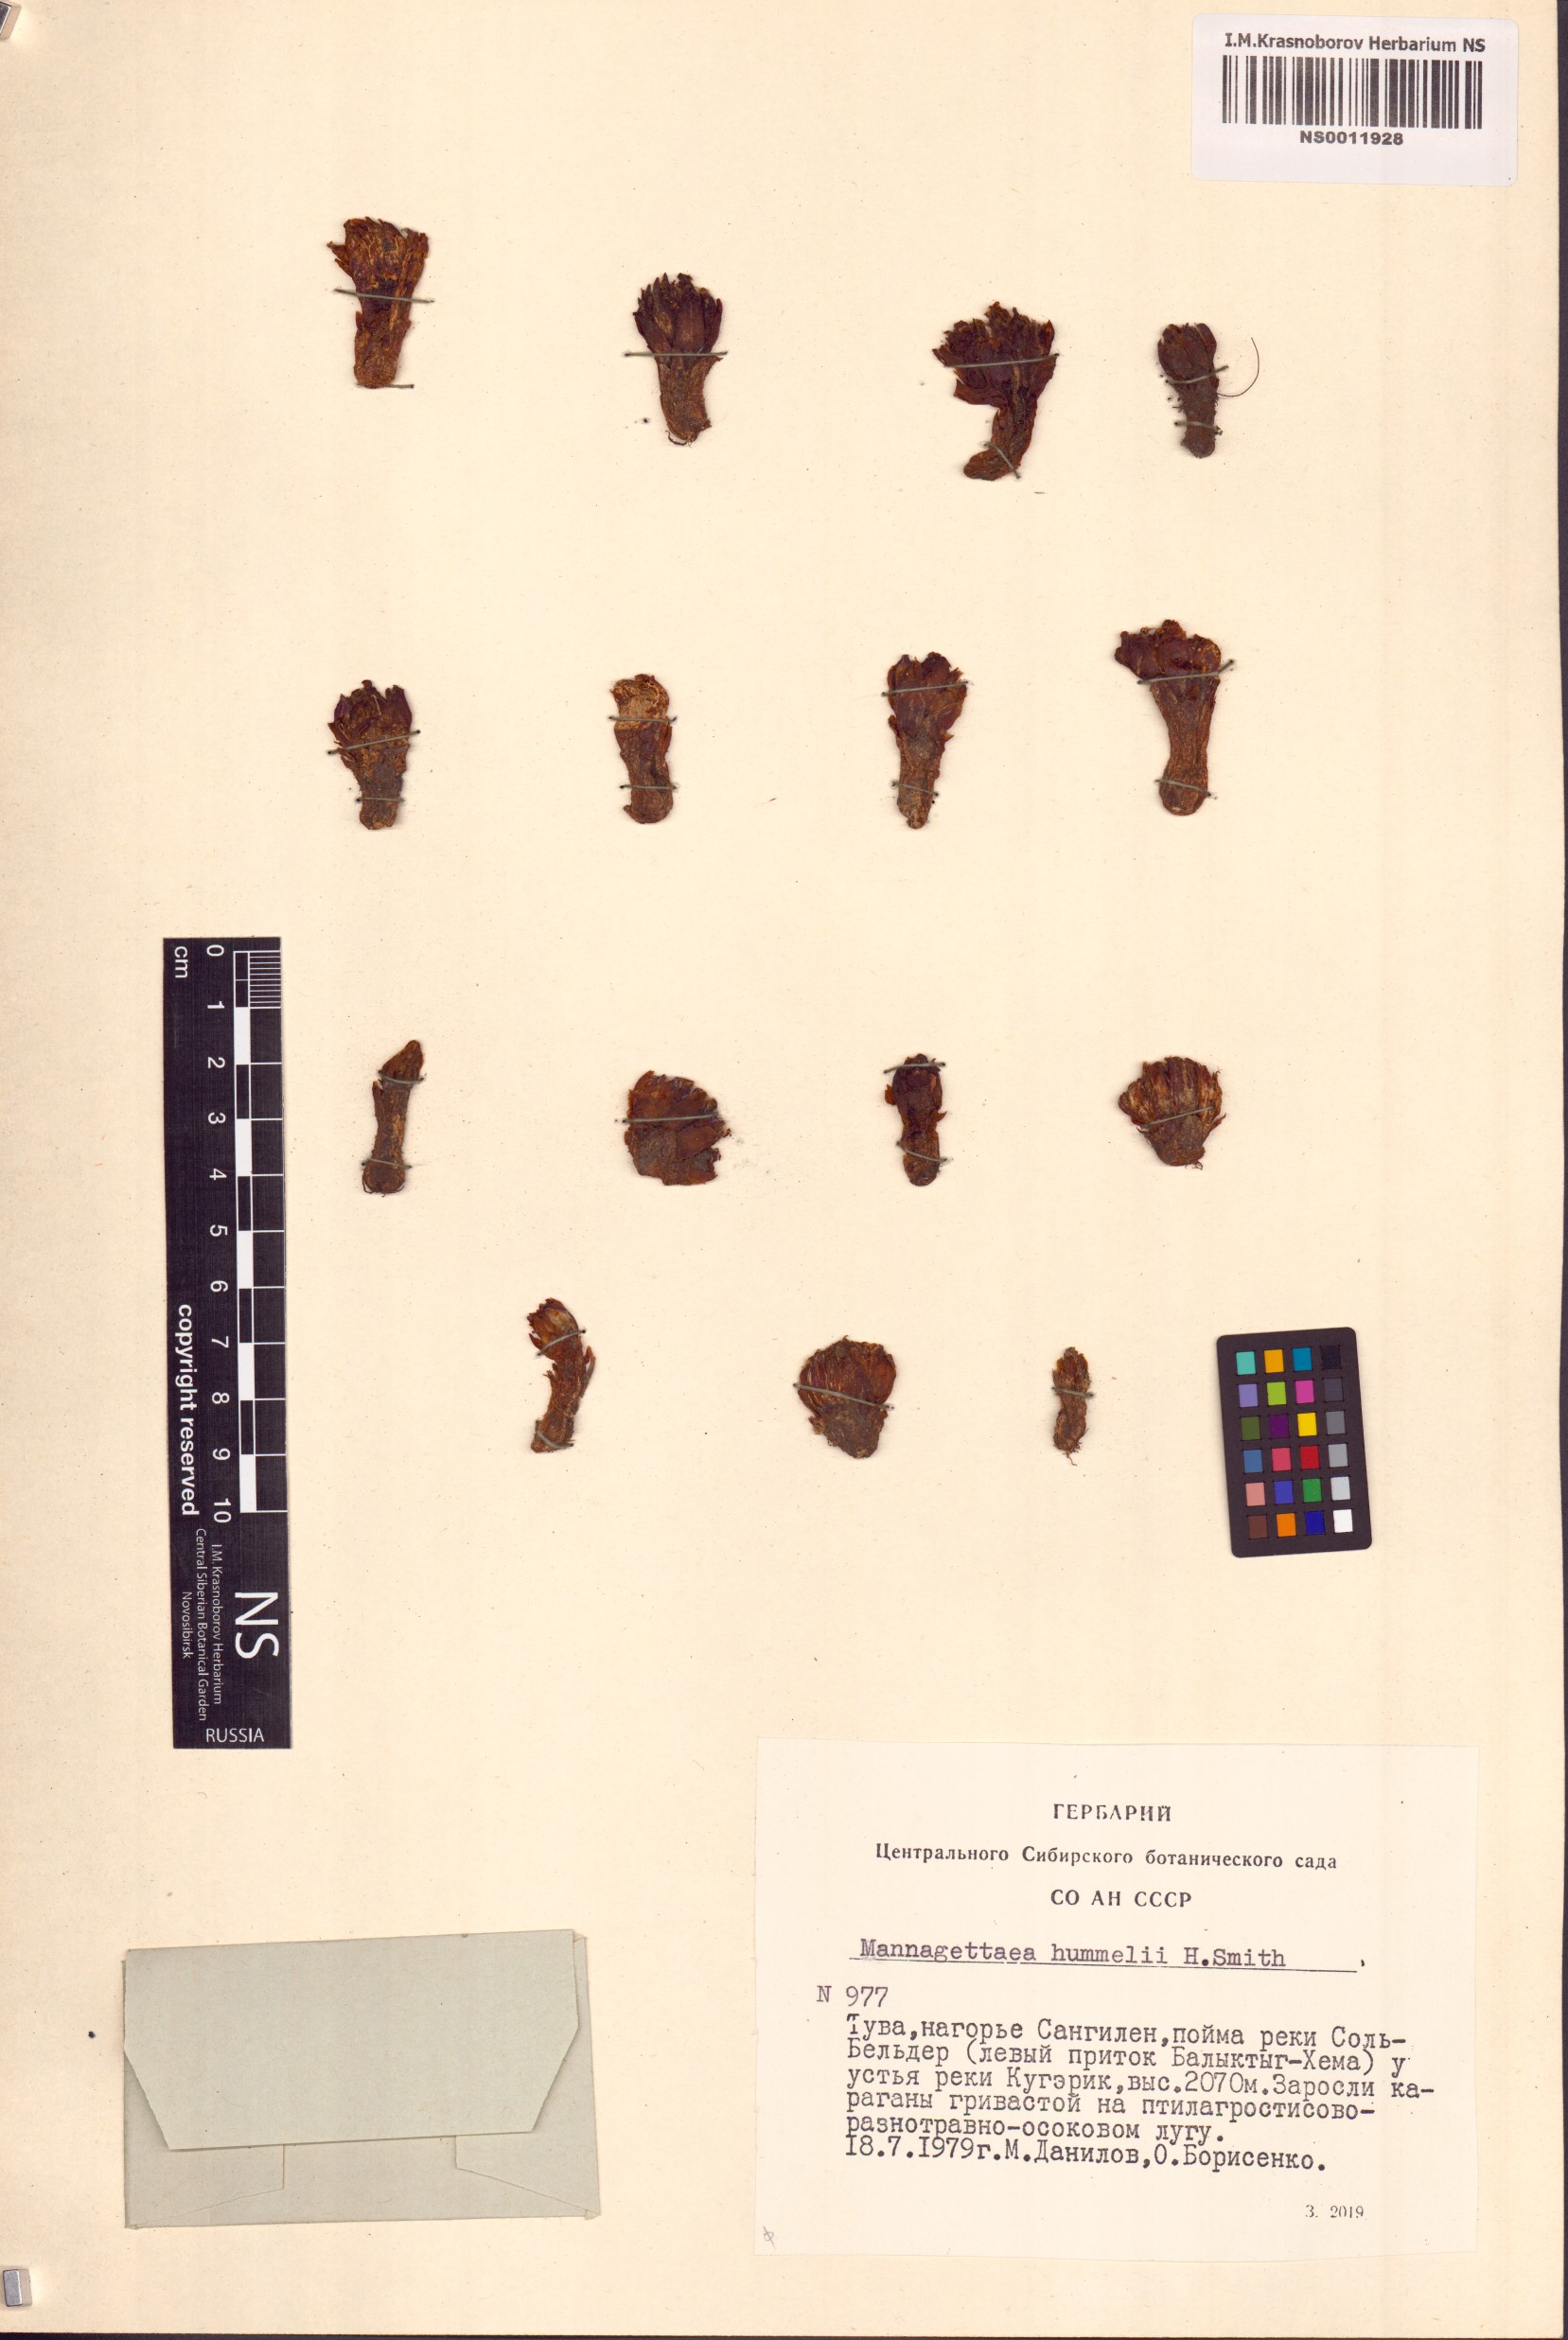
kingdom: Plantae
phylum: Tracheophyta
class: Magnoliopsida
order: Lamiales
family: Orobanchaceae
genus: Mannagettaea
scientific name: Mannagettaea hummelii
